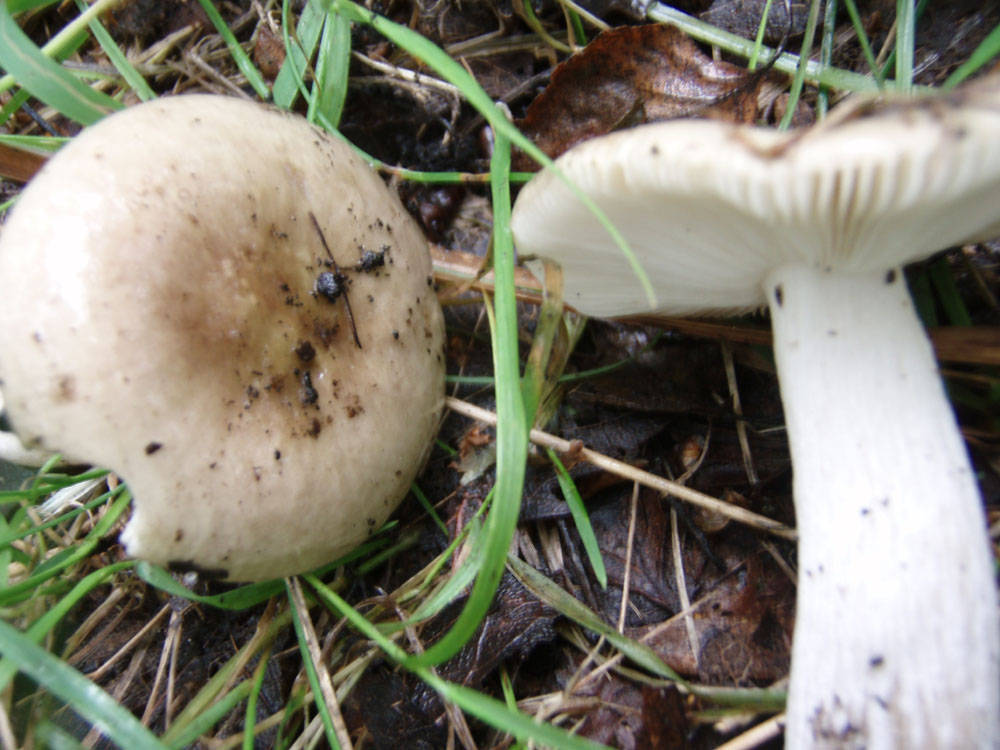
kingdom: Fungi
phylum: Basidiomycota
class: Agaricomycetes
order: Russulales
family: Russulaceae
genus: Russula
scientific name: Russula depallens
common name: falmende skørhat
